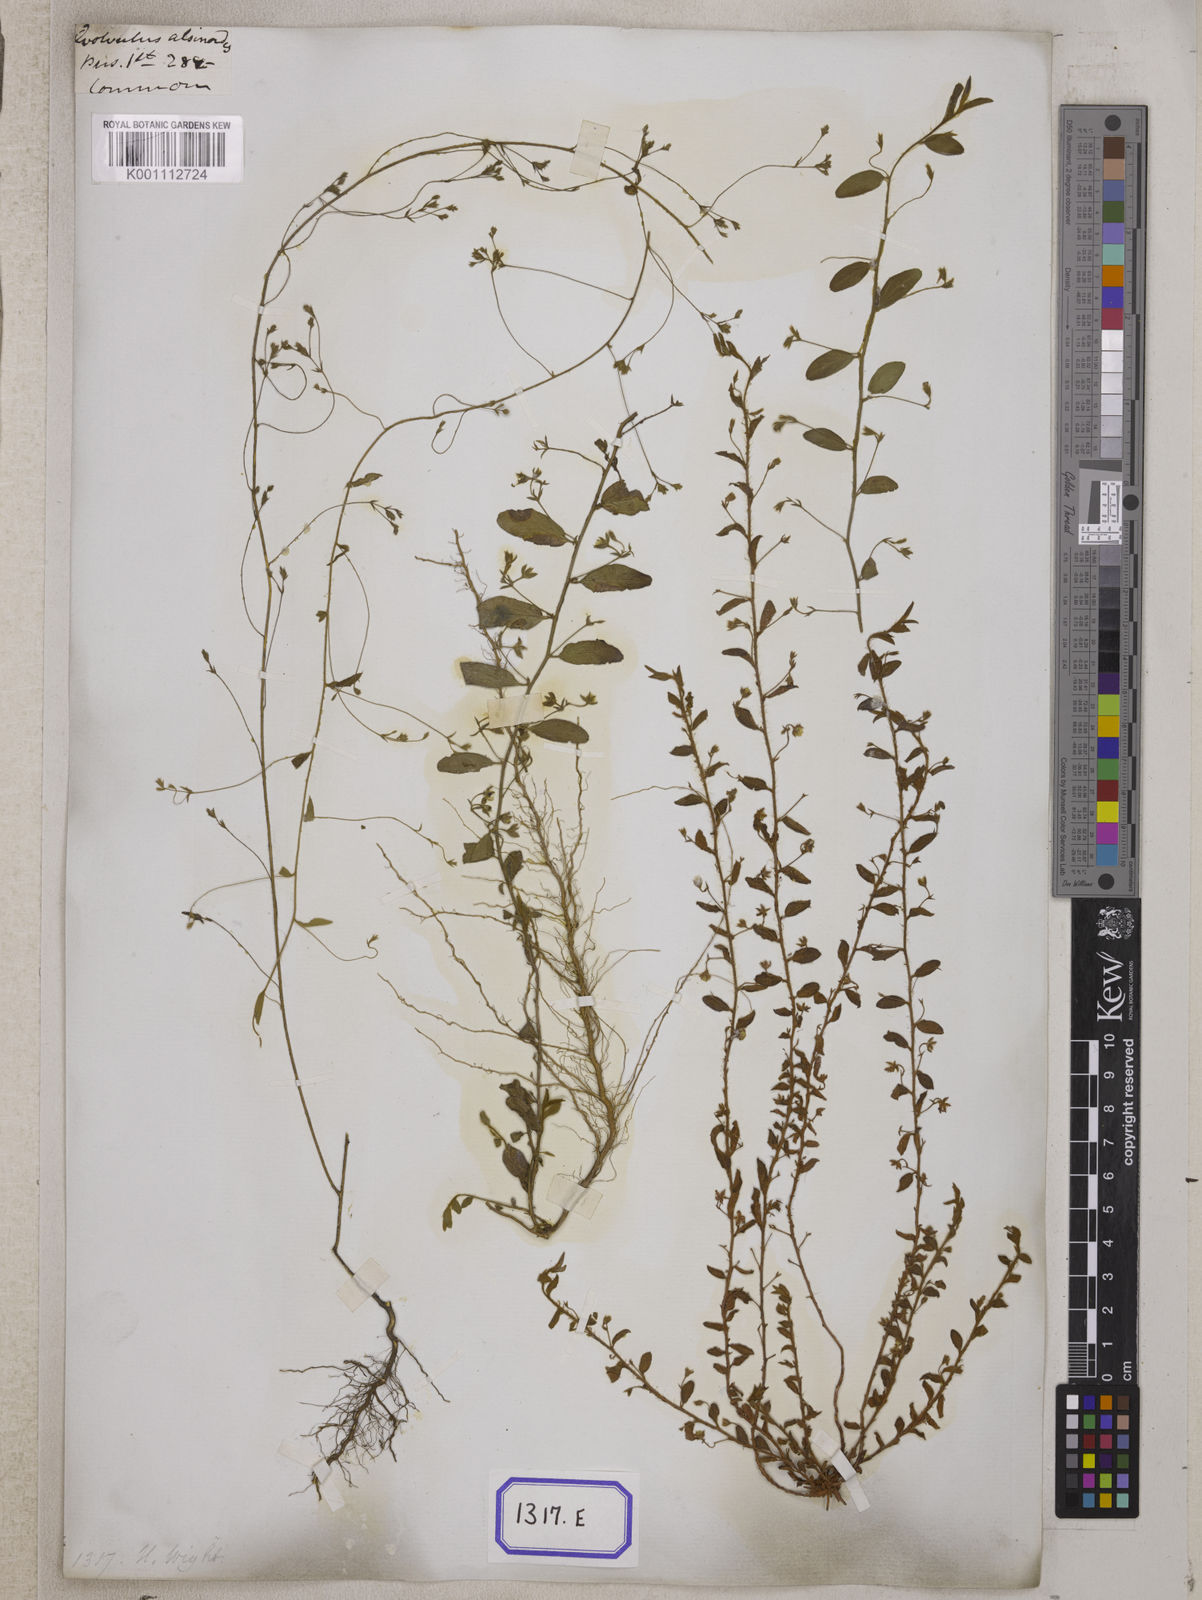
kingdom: Plantae
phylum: Tracheophyta
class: Magnoliopsida
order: Solanales
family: Convolvulaceae
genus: Evolvulus
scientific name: Evolvulus alsinoides
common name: Slender dwarf morning-glory
